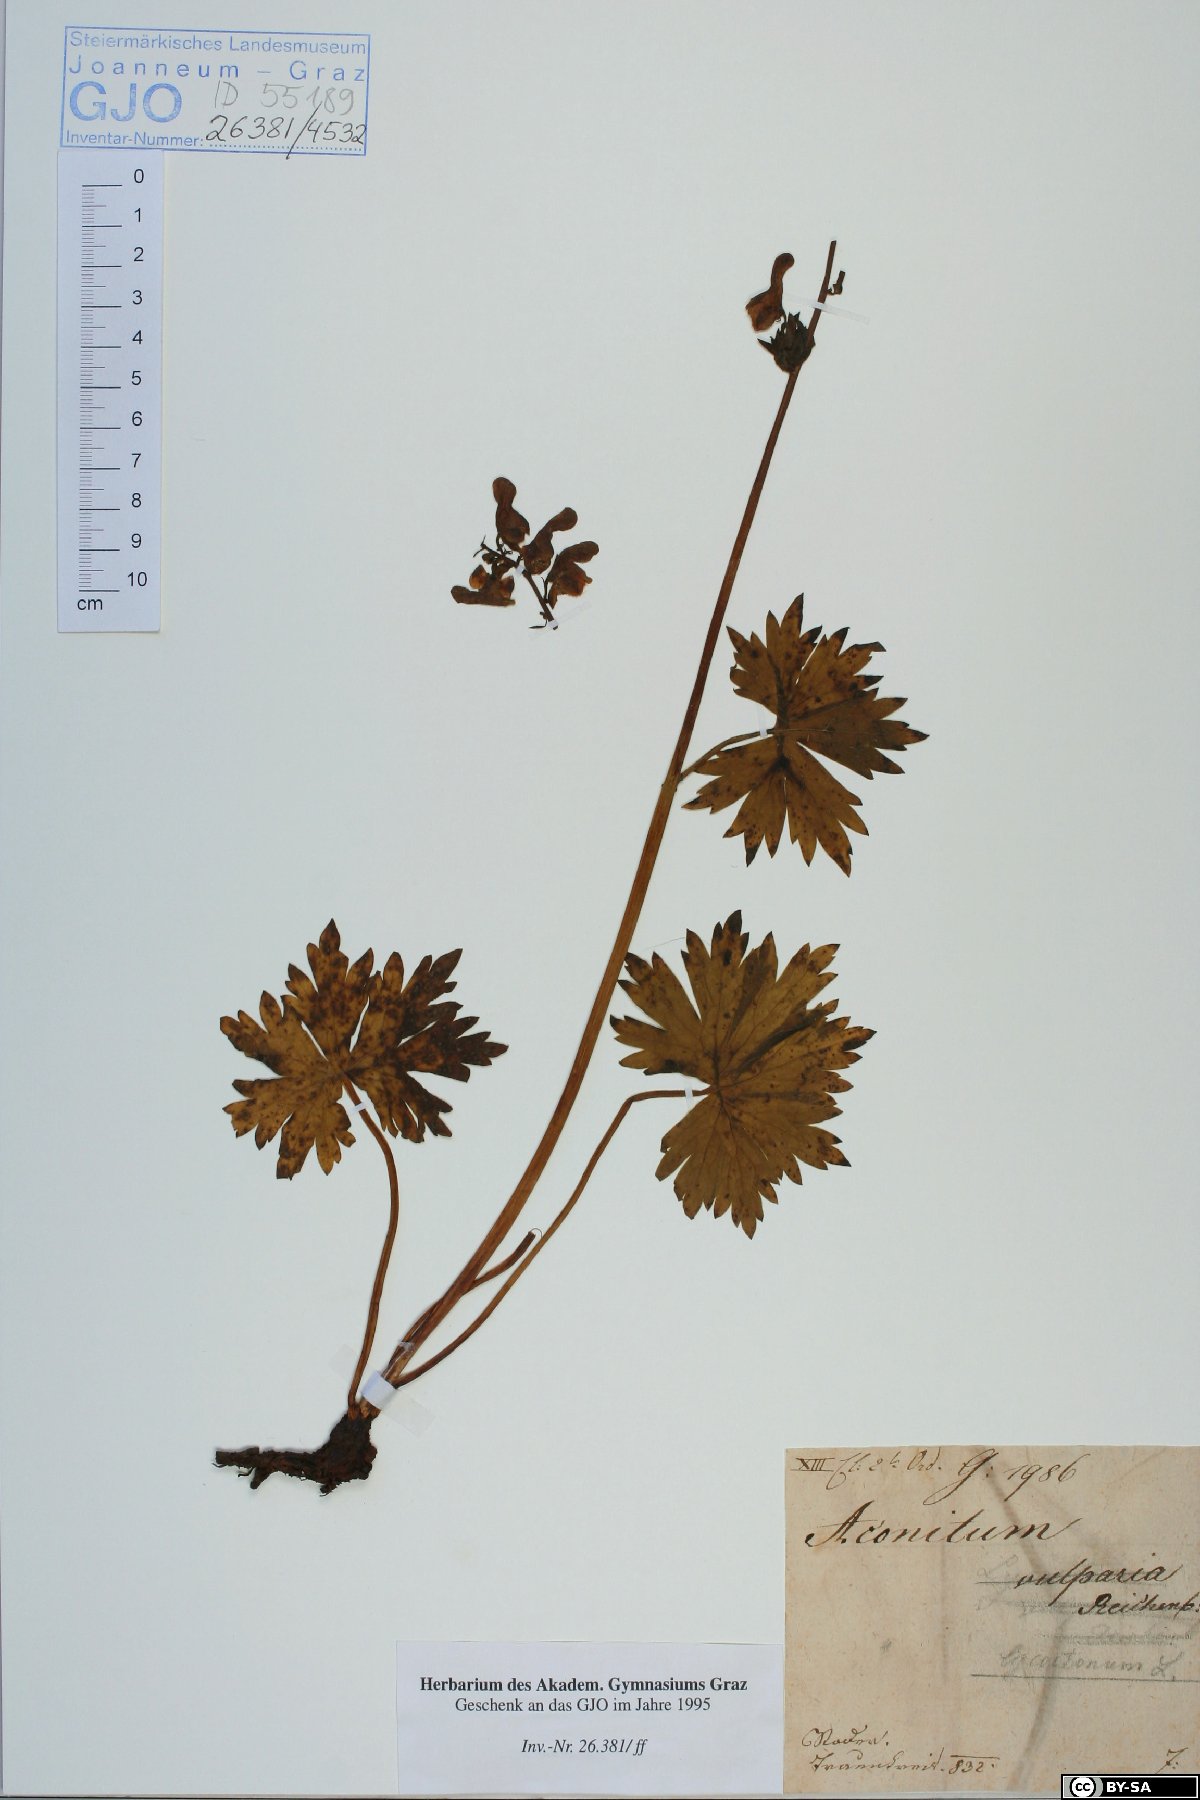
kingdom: Plantae
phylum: Tracheophyta
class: Magnoliopsida
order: Ranunculales
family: Ranunculaceae
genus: Aconitum
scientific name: Aconitum lycoctonum
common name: Wolf's-bane
